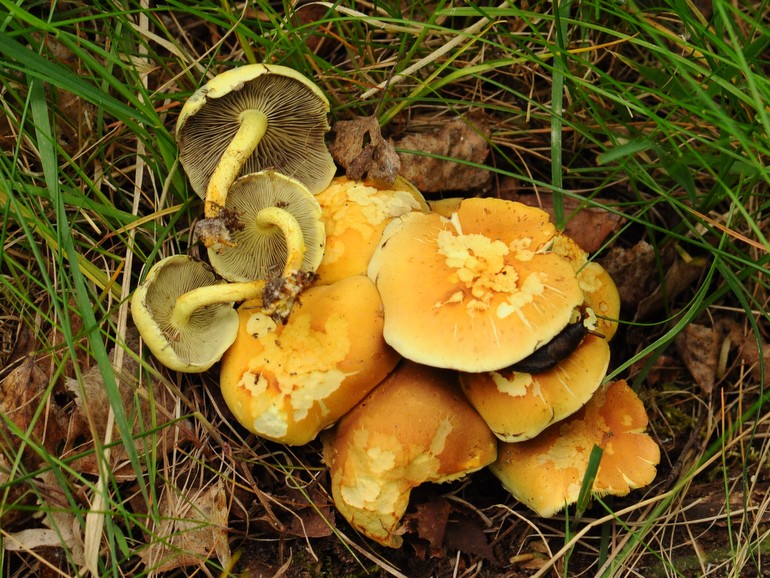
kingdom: Fungi
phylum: Basidiomycota
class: Agaricomycetes
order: Agaricales
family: Strophariaceae
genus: Hypholoma
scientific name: Hypholoma fasciculare
